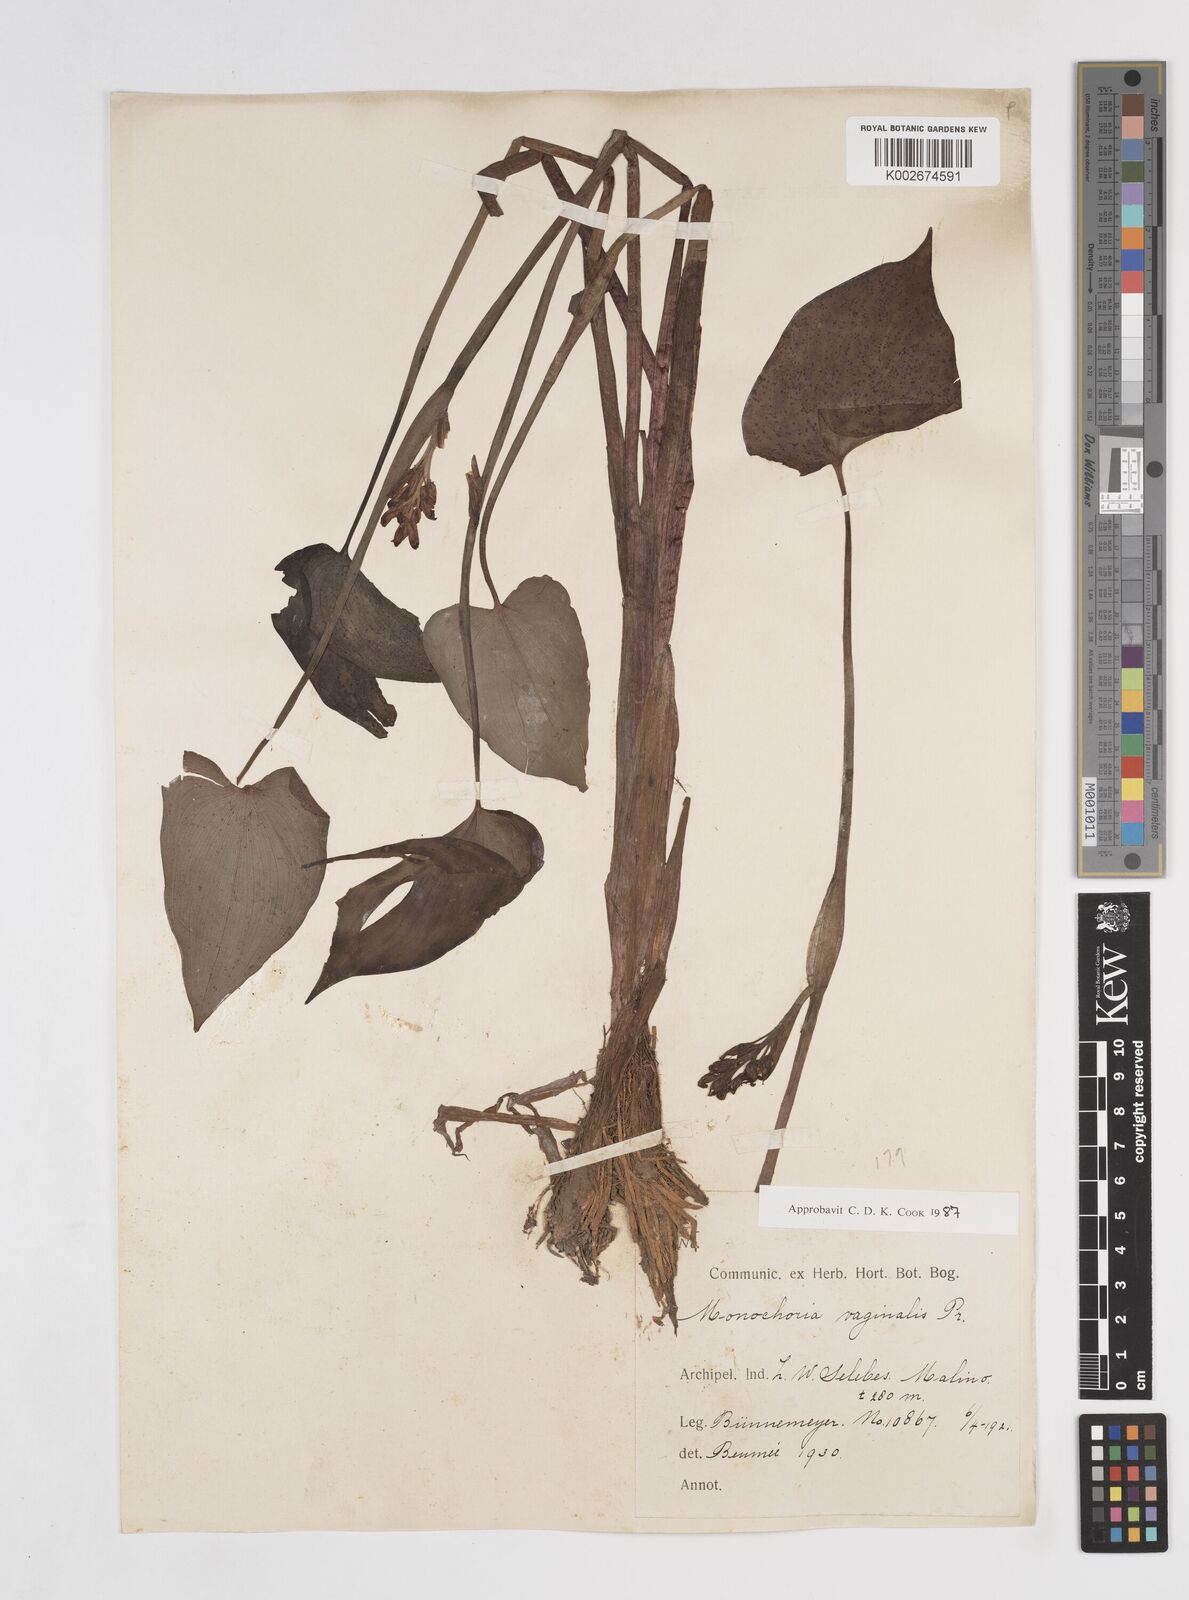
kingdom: Plantae
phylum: Tracheophyta
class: Liliopsida
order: Commelinales
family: Pontederiaceae
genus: Pontederia
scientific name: Pontederia vaginalis
